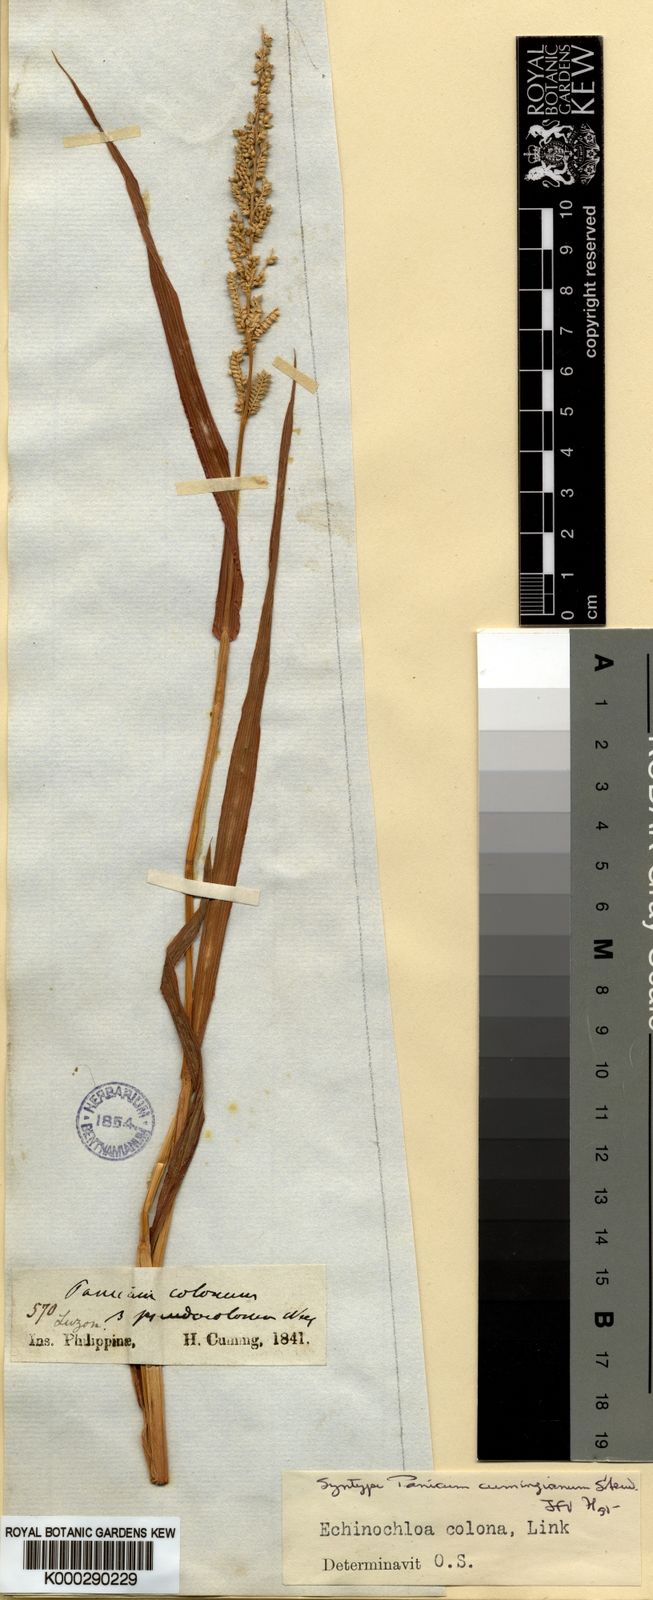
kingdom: Plantae
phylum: Tracheophyta
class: Liliopsida
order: Poales
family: Poaceae
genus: Echinochloa
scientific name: Echinochloa
